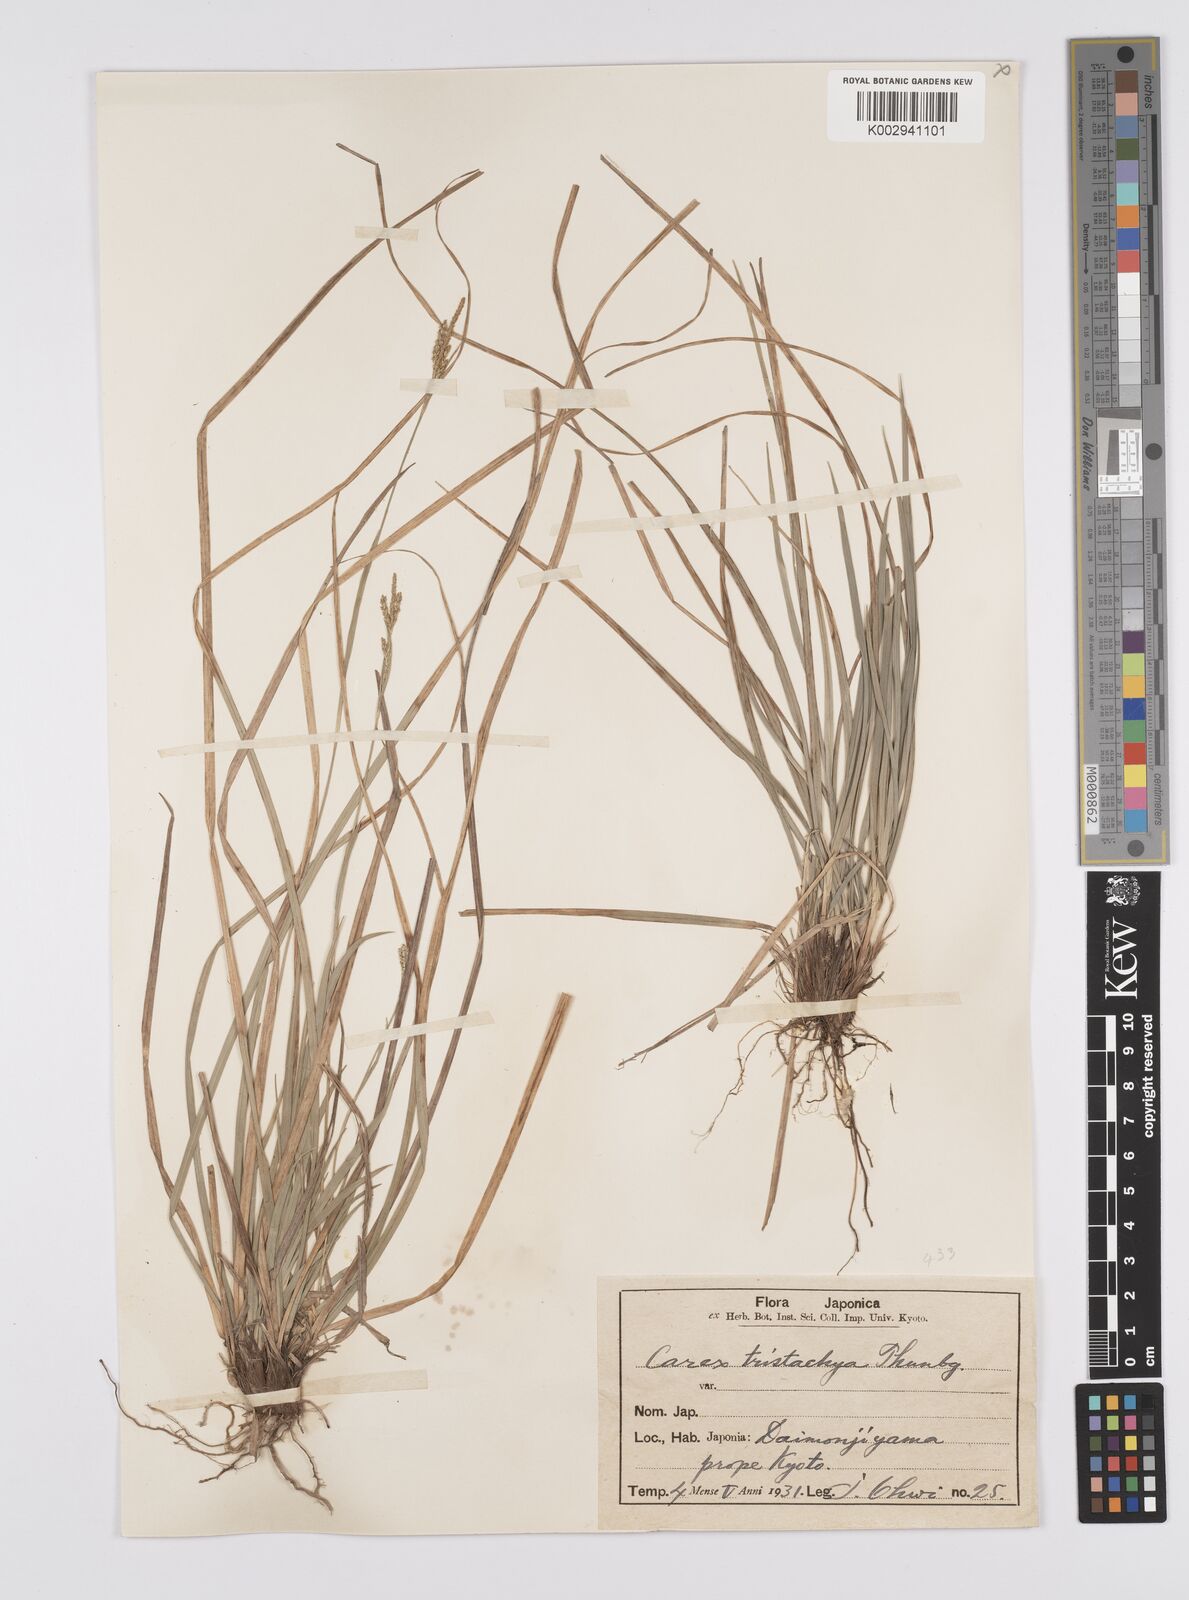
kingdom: Plantae
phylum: Tracheophyta
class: Liliopsida
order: Poales
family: Cyperaceae
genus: Carex
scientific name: Carex tristachya
